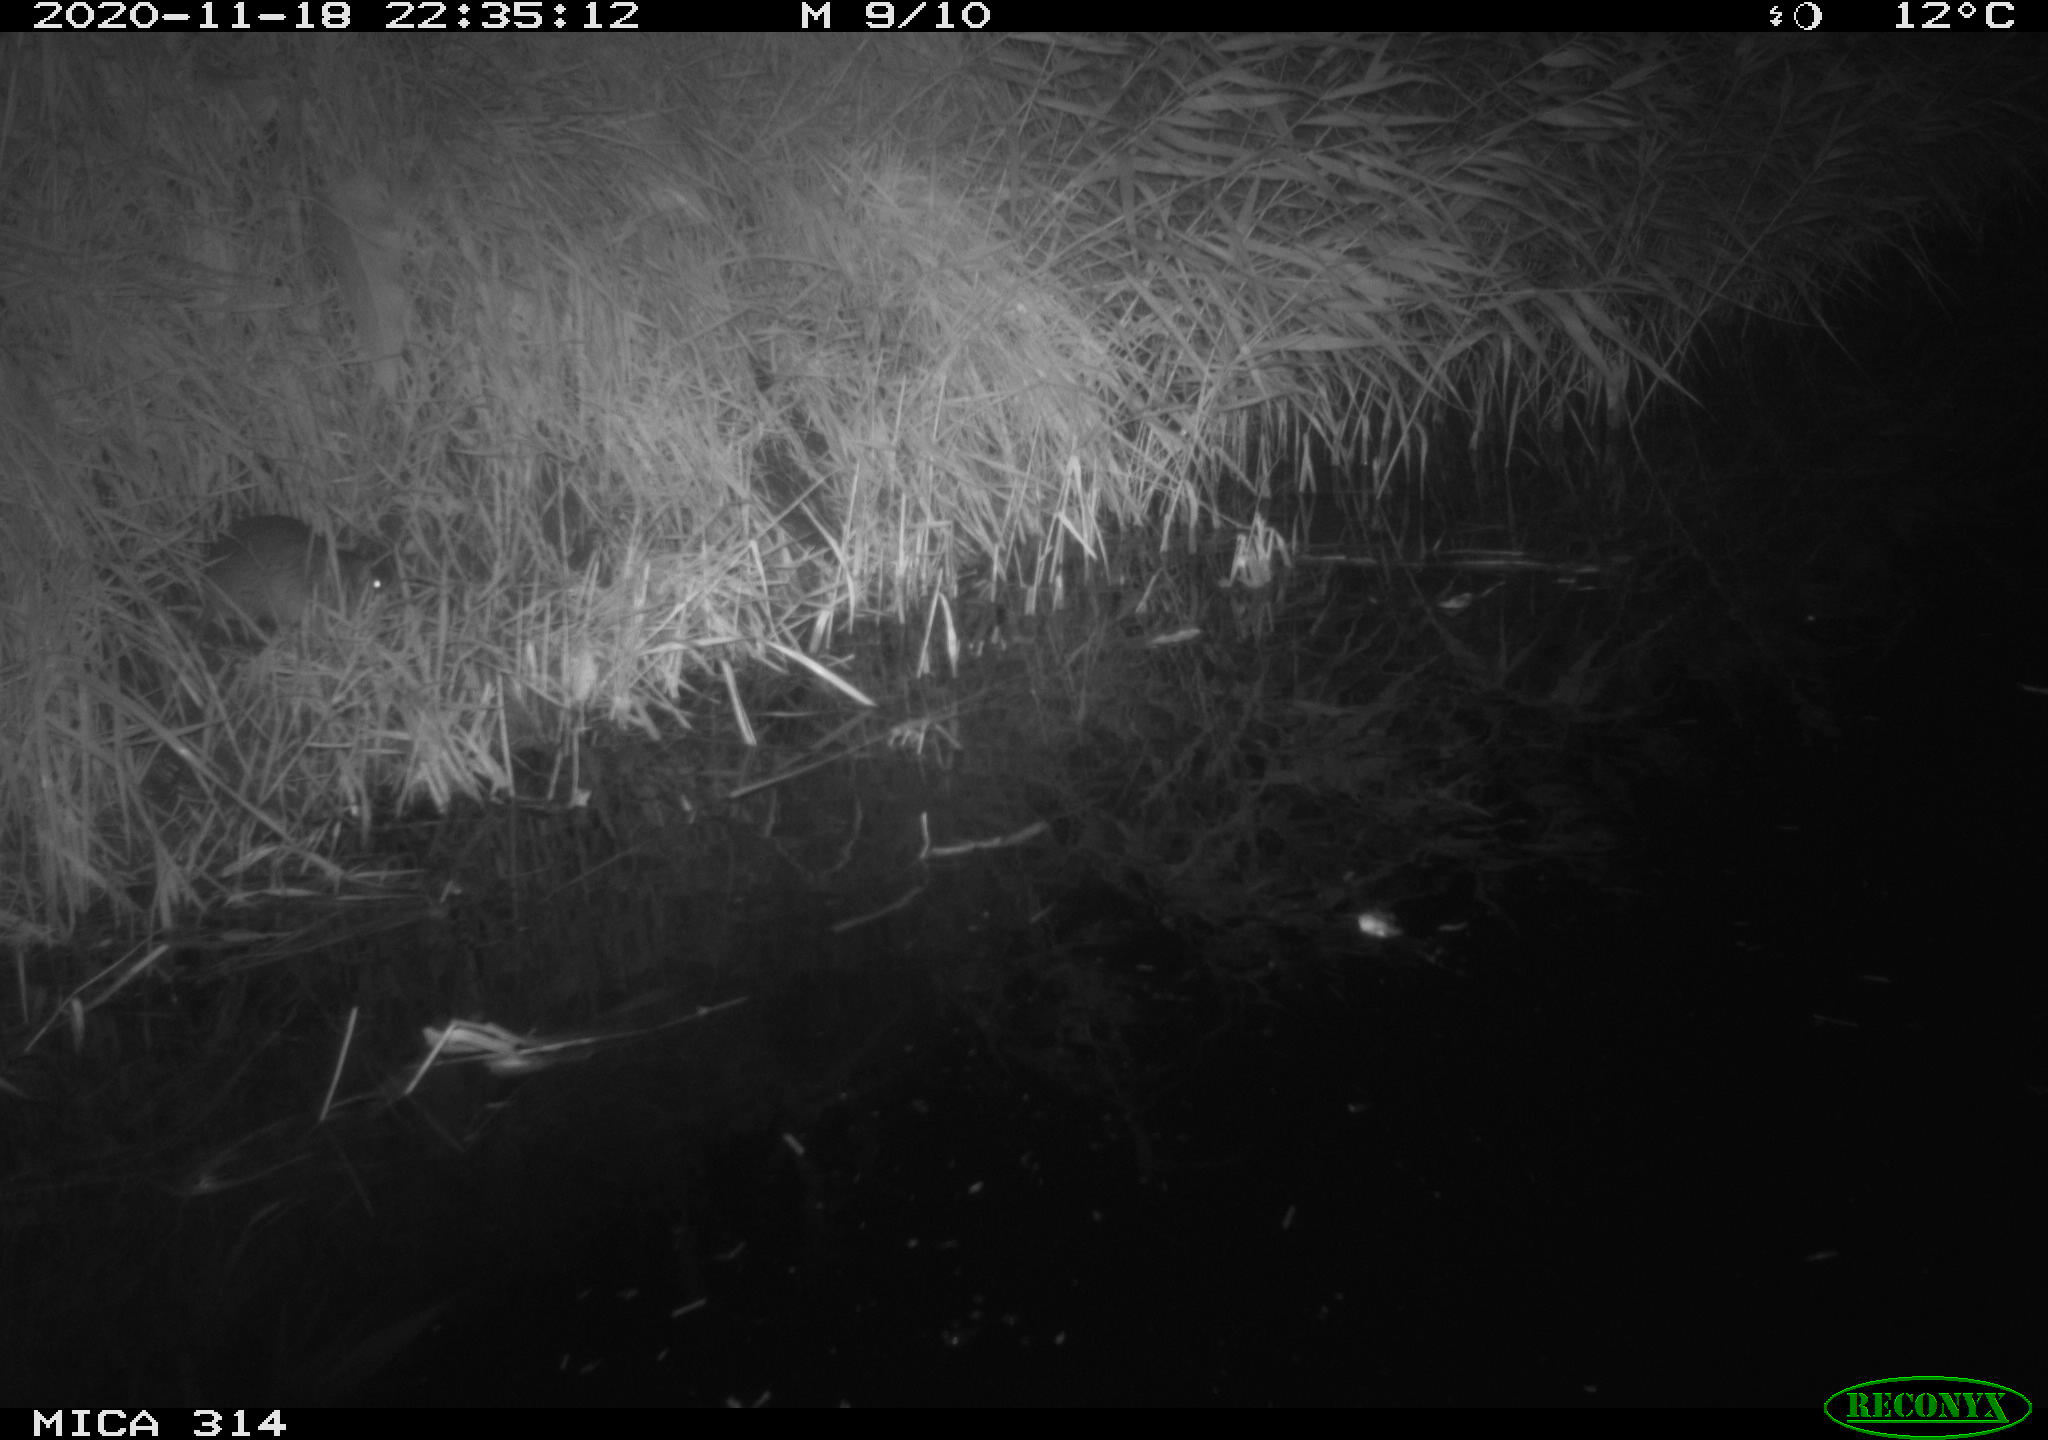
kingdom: Animalia
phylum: Chordata
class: Mammalia
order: Rodentia
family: Muridae
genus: Rattus
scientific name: Rattus norvegicus
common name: Brown rat
